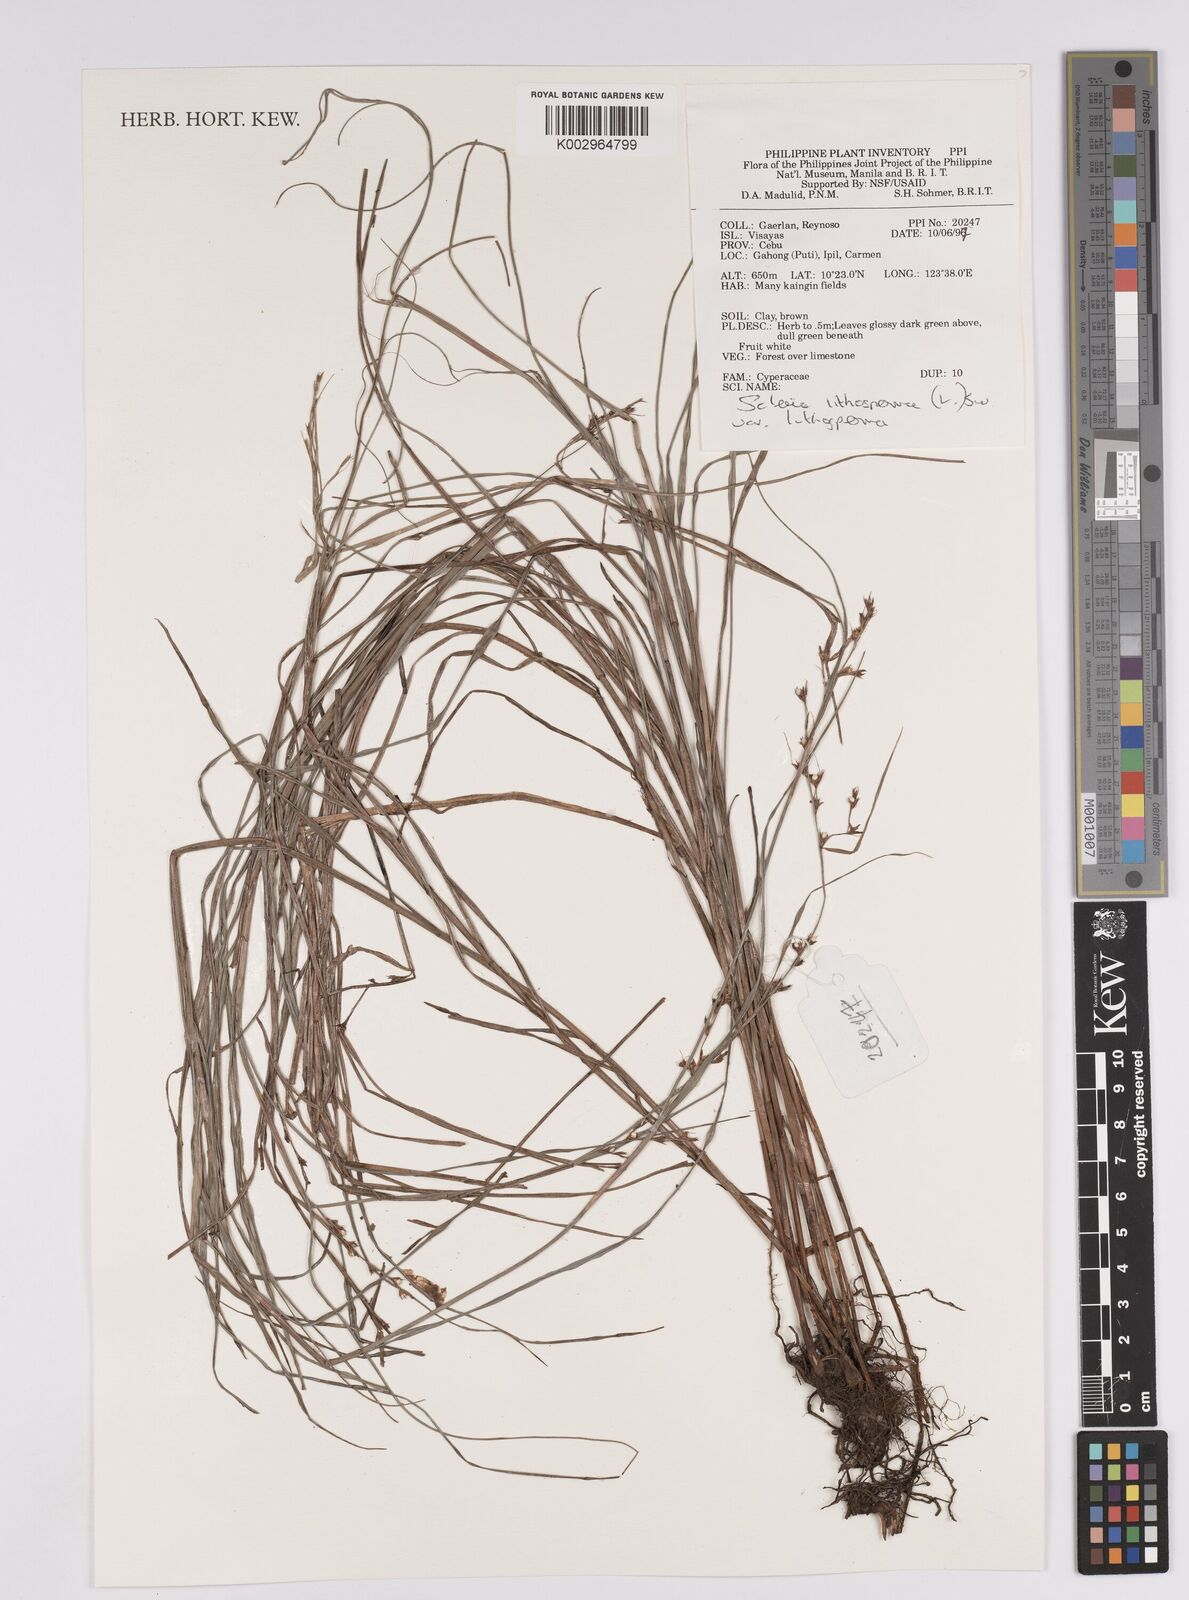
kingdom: Plantae
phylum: Tracheophyta
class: Liliopsida
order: Poales
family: Cyperaceae
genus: Scleria
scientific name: Scleria lithosperma
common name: Florida keys nut-rush
